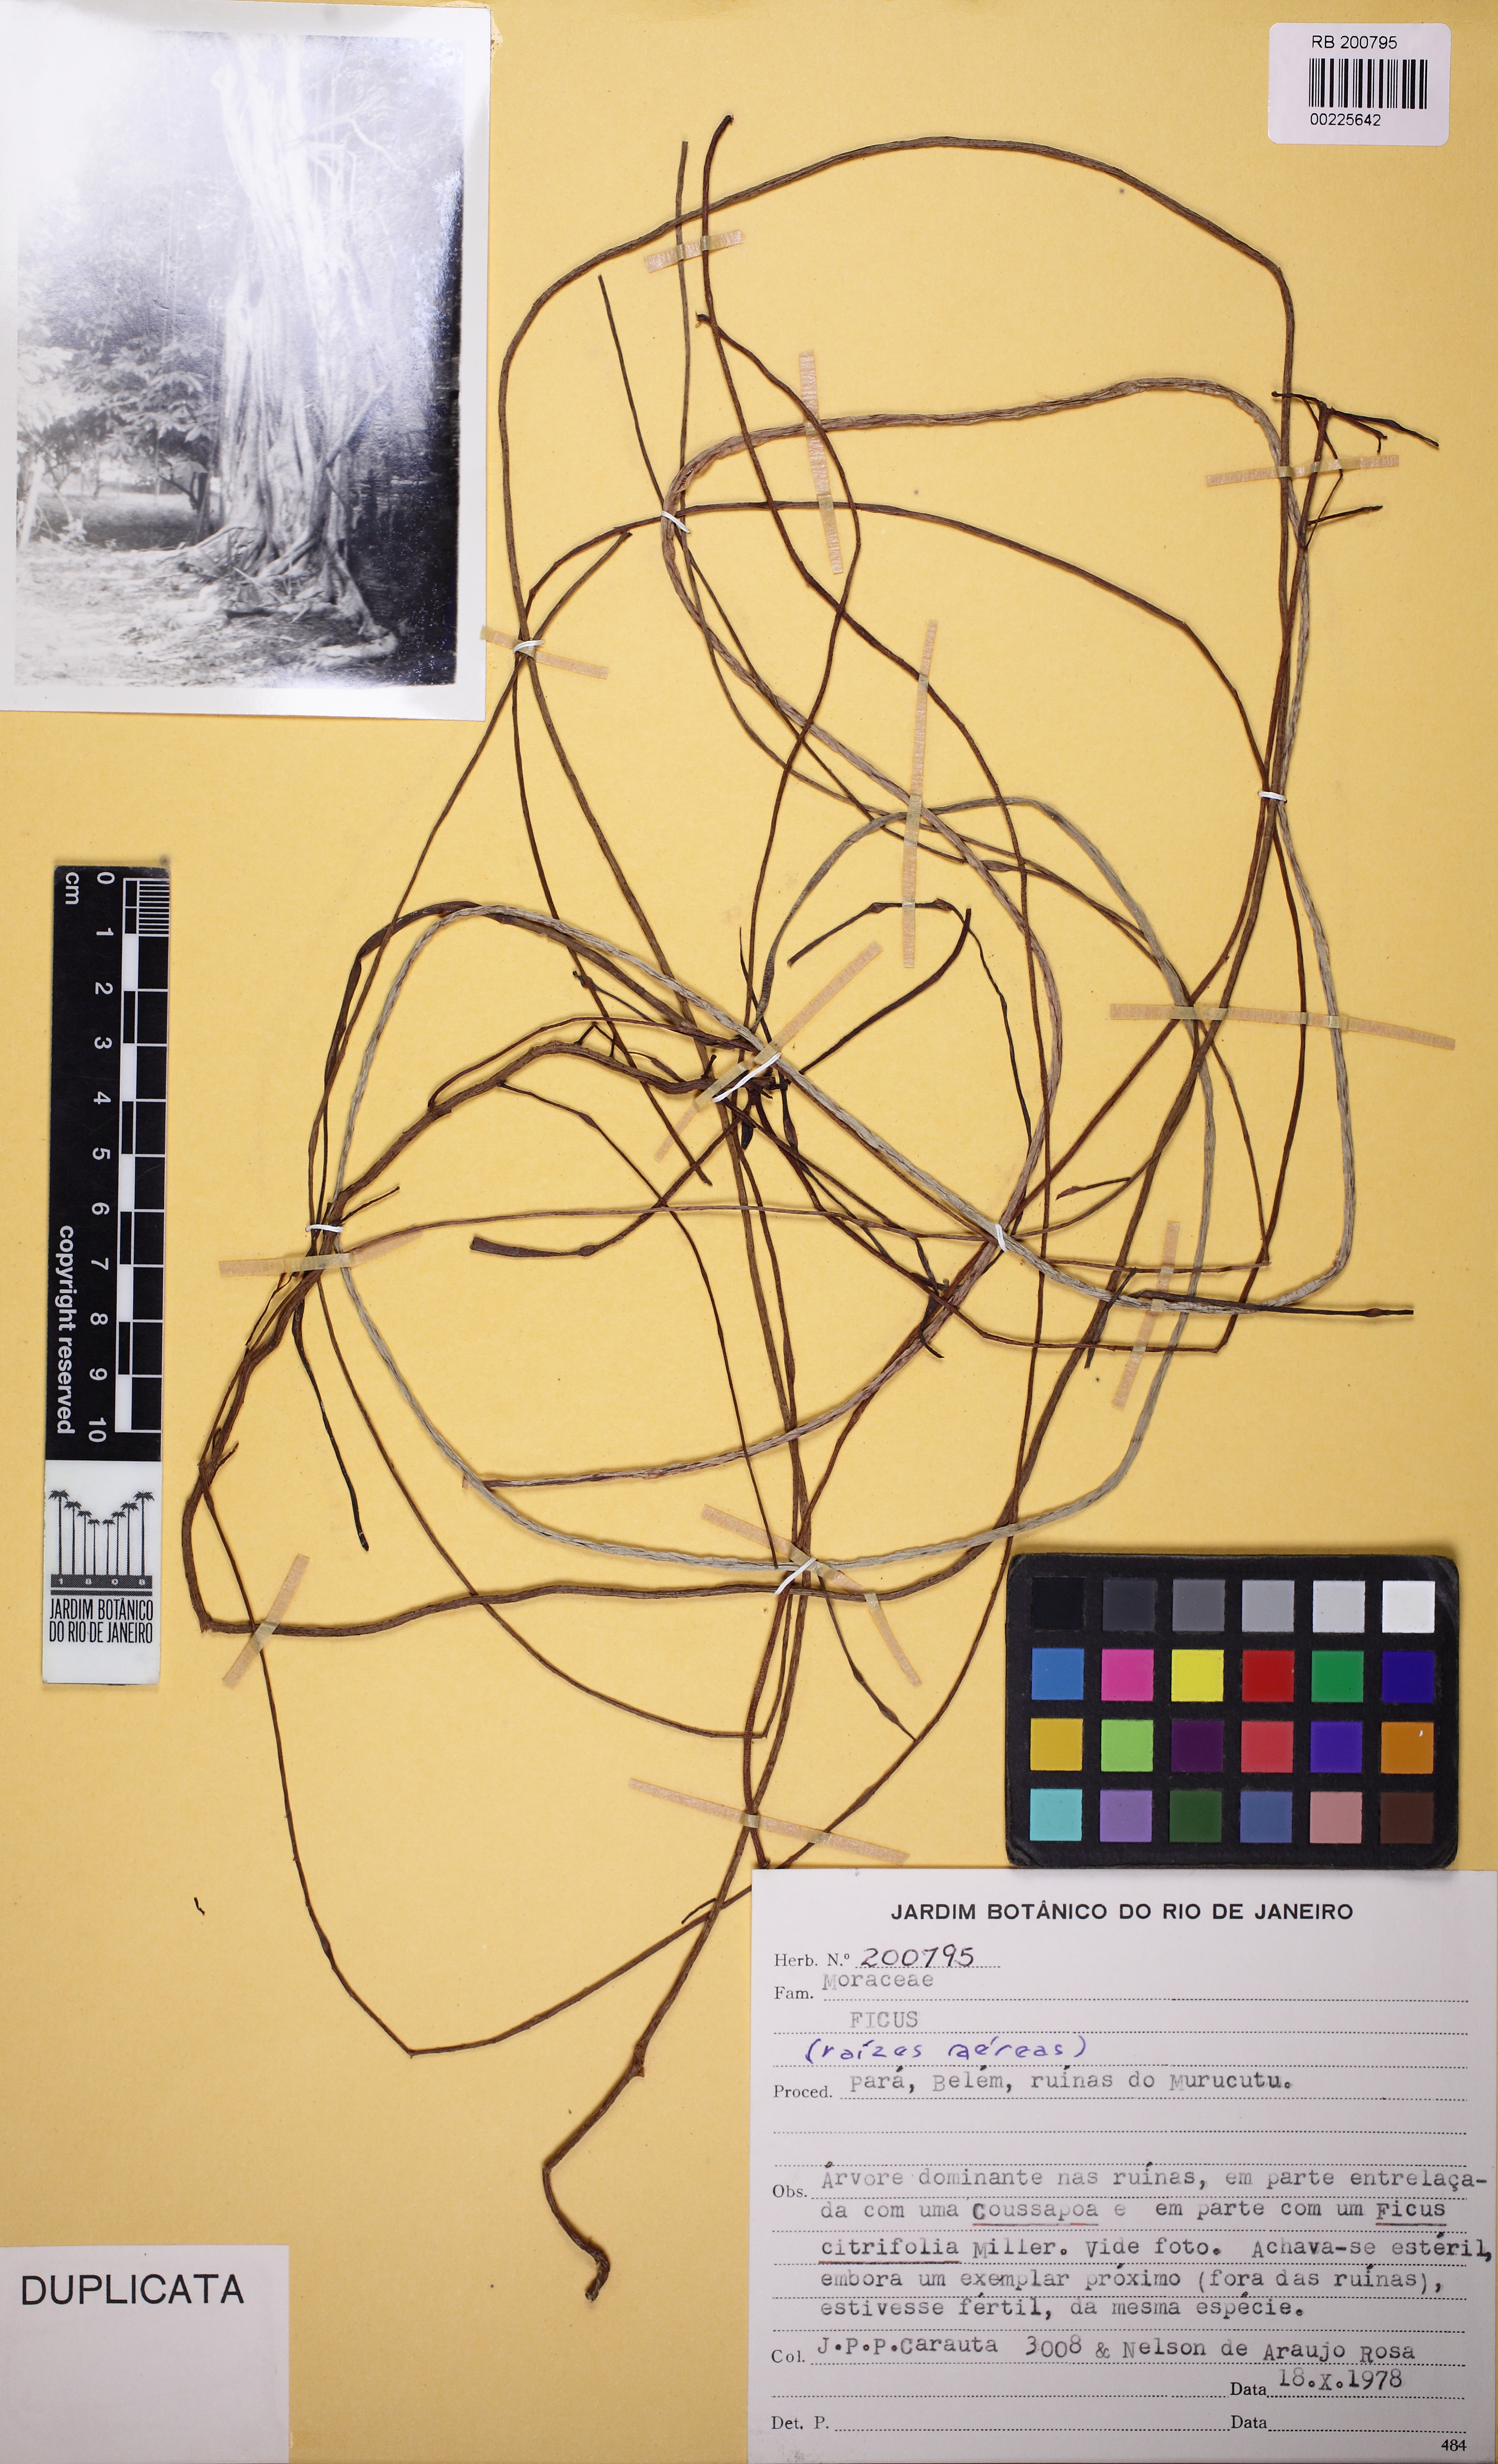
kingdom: Plantae
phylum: Tracheophyta
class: Magnoliopsida
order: Rosales
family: Moraceae
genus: Ficus
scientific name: Ficus
